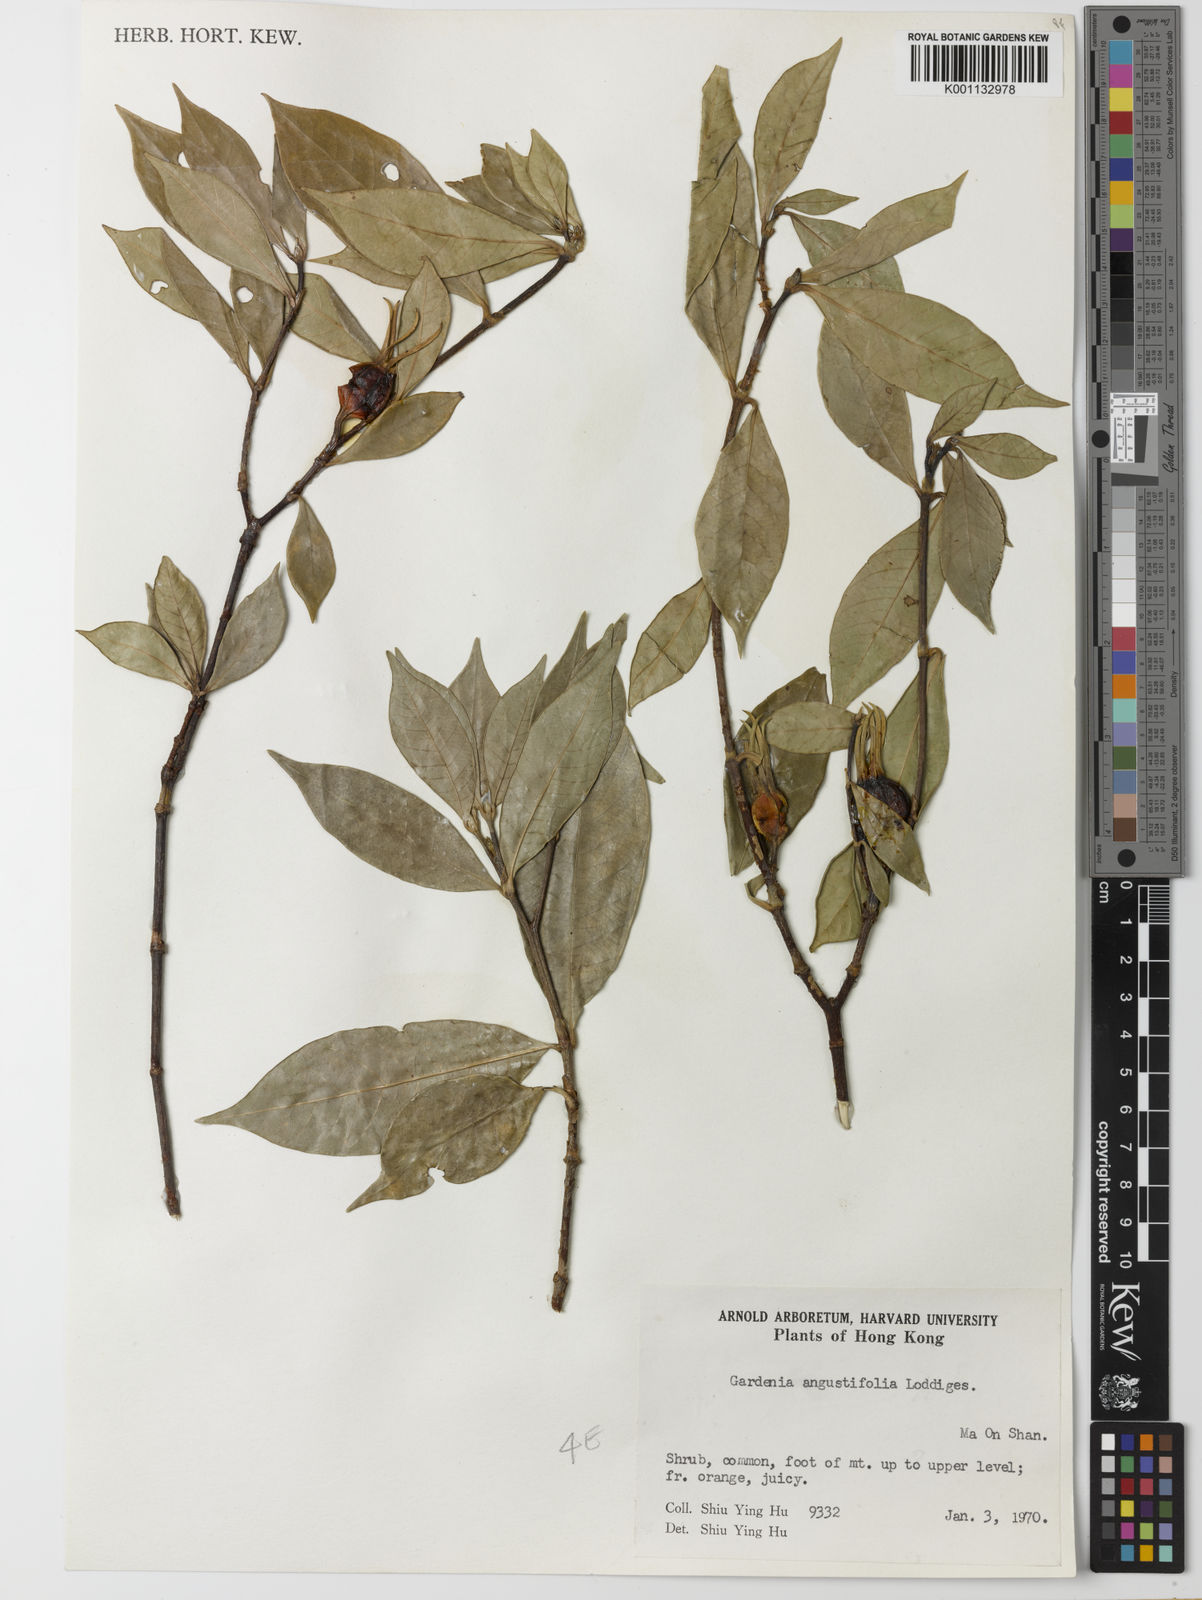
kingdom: Plantae
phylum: Tracheophyta
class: Magnoliopsida
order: Gentianales
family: Rubiaceae
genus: Gardenia
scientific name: Gardenia jasminoides
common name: Cape-jasmine
